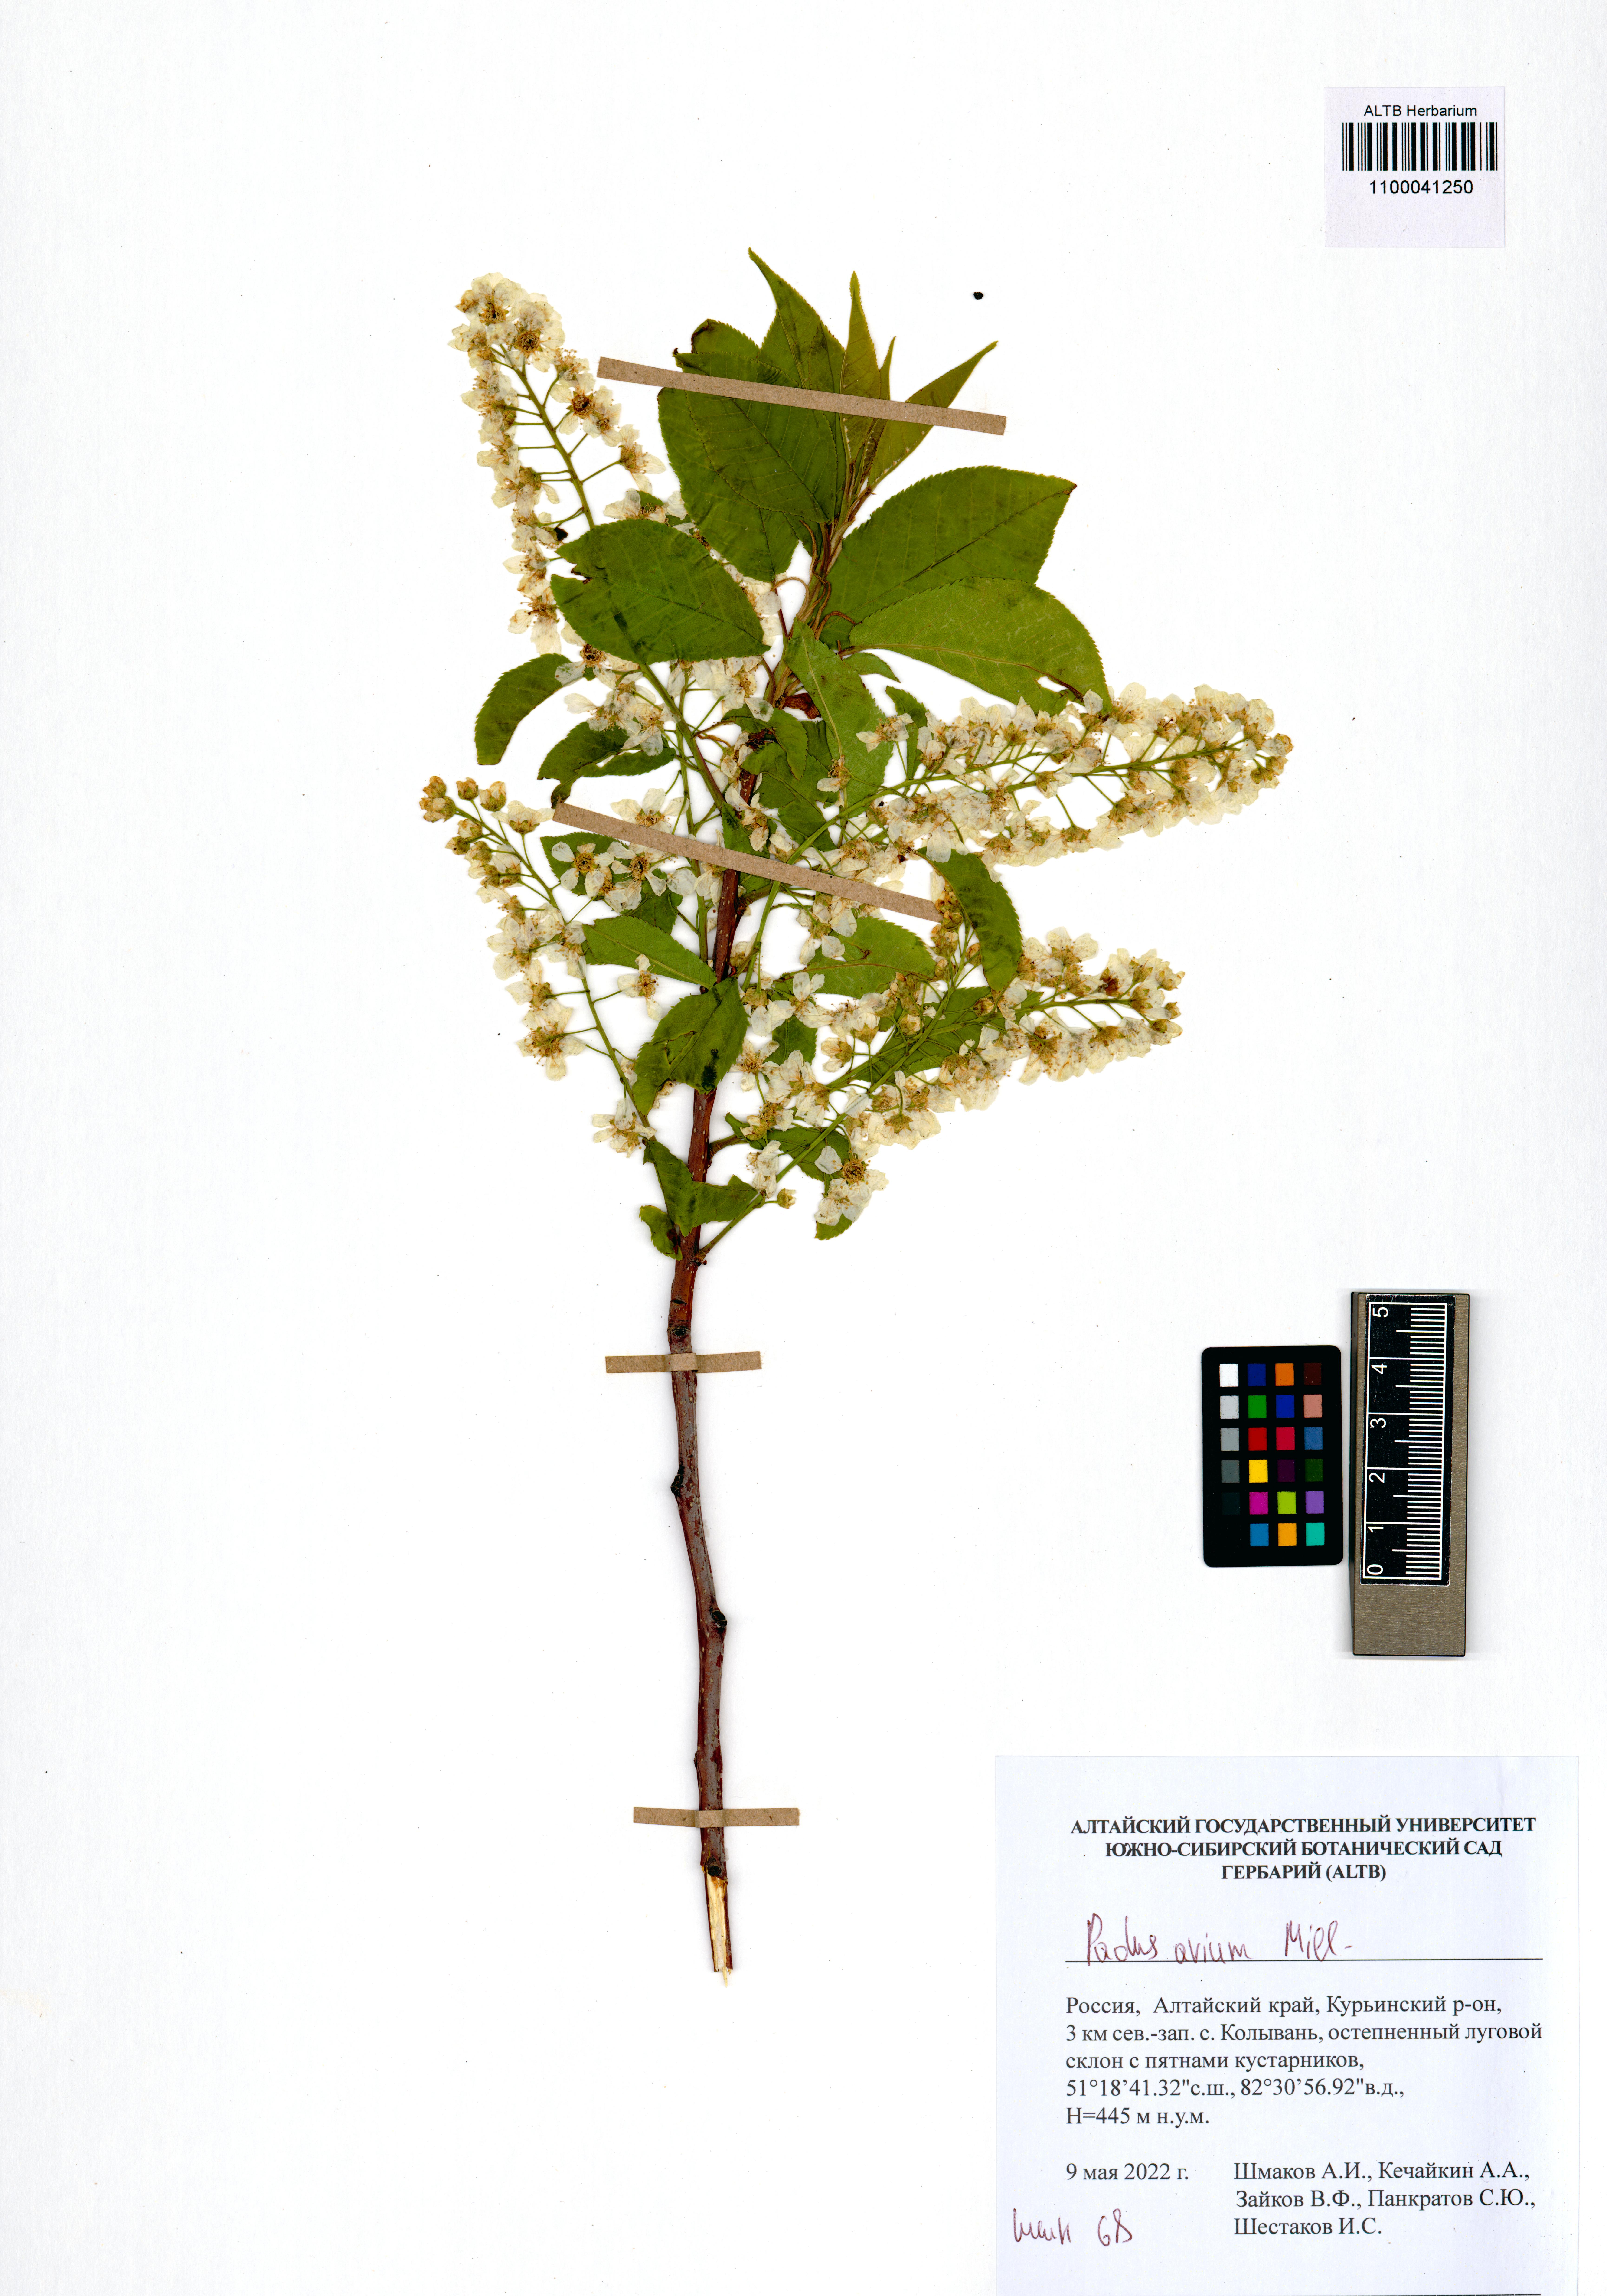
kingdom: Plantae
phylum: Tracheophyta
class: Magnoliopsida
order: Rosales
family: Rosaceae
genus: Prunus
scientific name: Prunus padus
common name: Bird cherry
